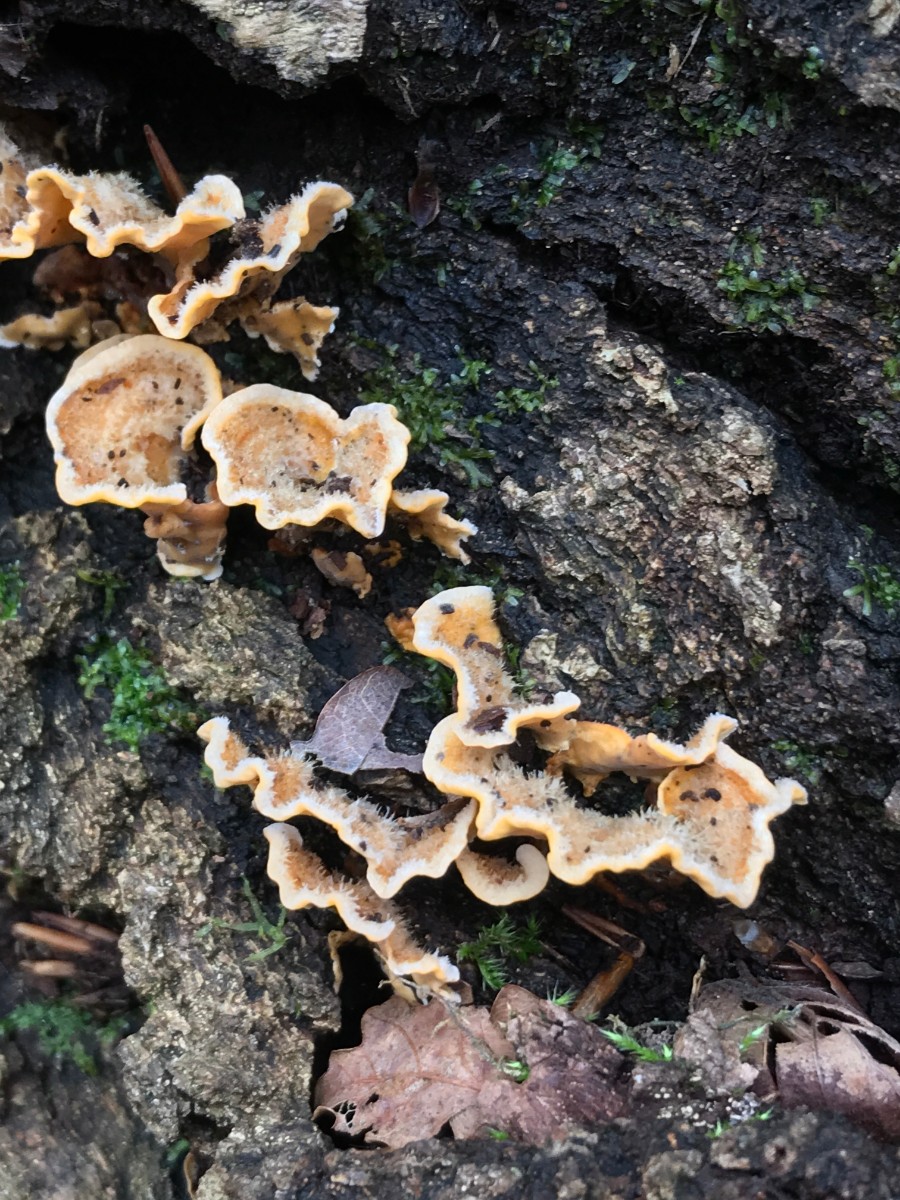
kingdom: Fungi
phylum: Basidiomycota
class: Agaricomycetes
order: Russulales
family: Stereaceae
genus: Stereum
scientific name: Stereum hirsutum
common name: håret lædersvamp
